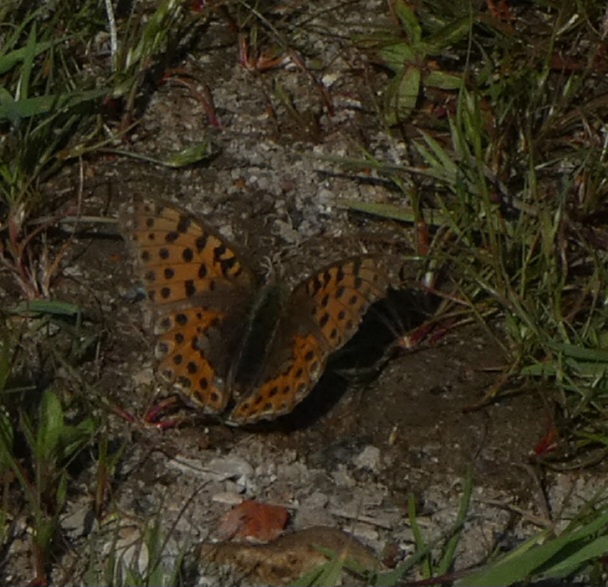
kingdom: Animalia
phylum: Arthropoda
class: Insecta
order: Lepidoptera
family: Nymphalidae
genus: Issoria
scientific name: Issoria lathonia
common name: Storplettet perlemorsommerfugl
